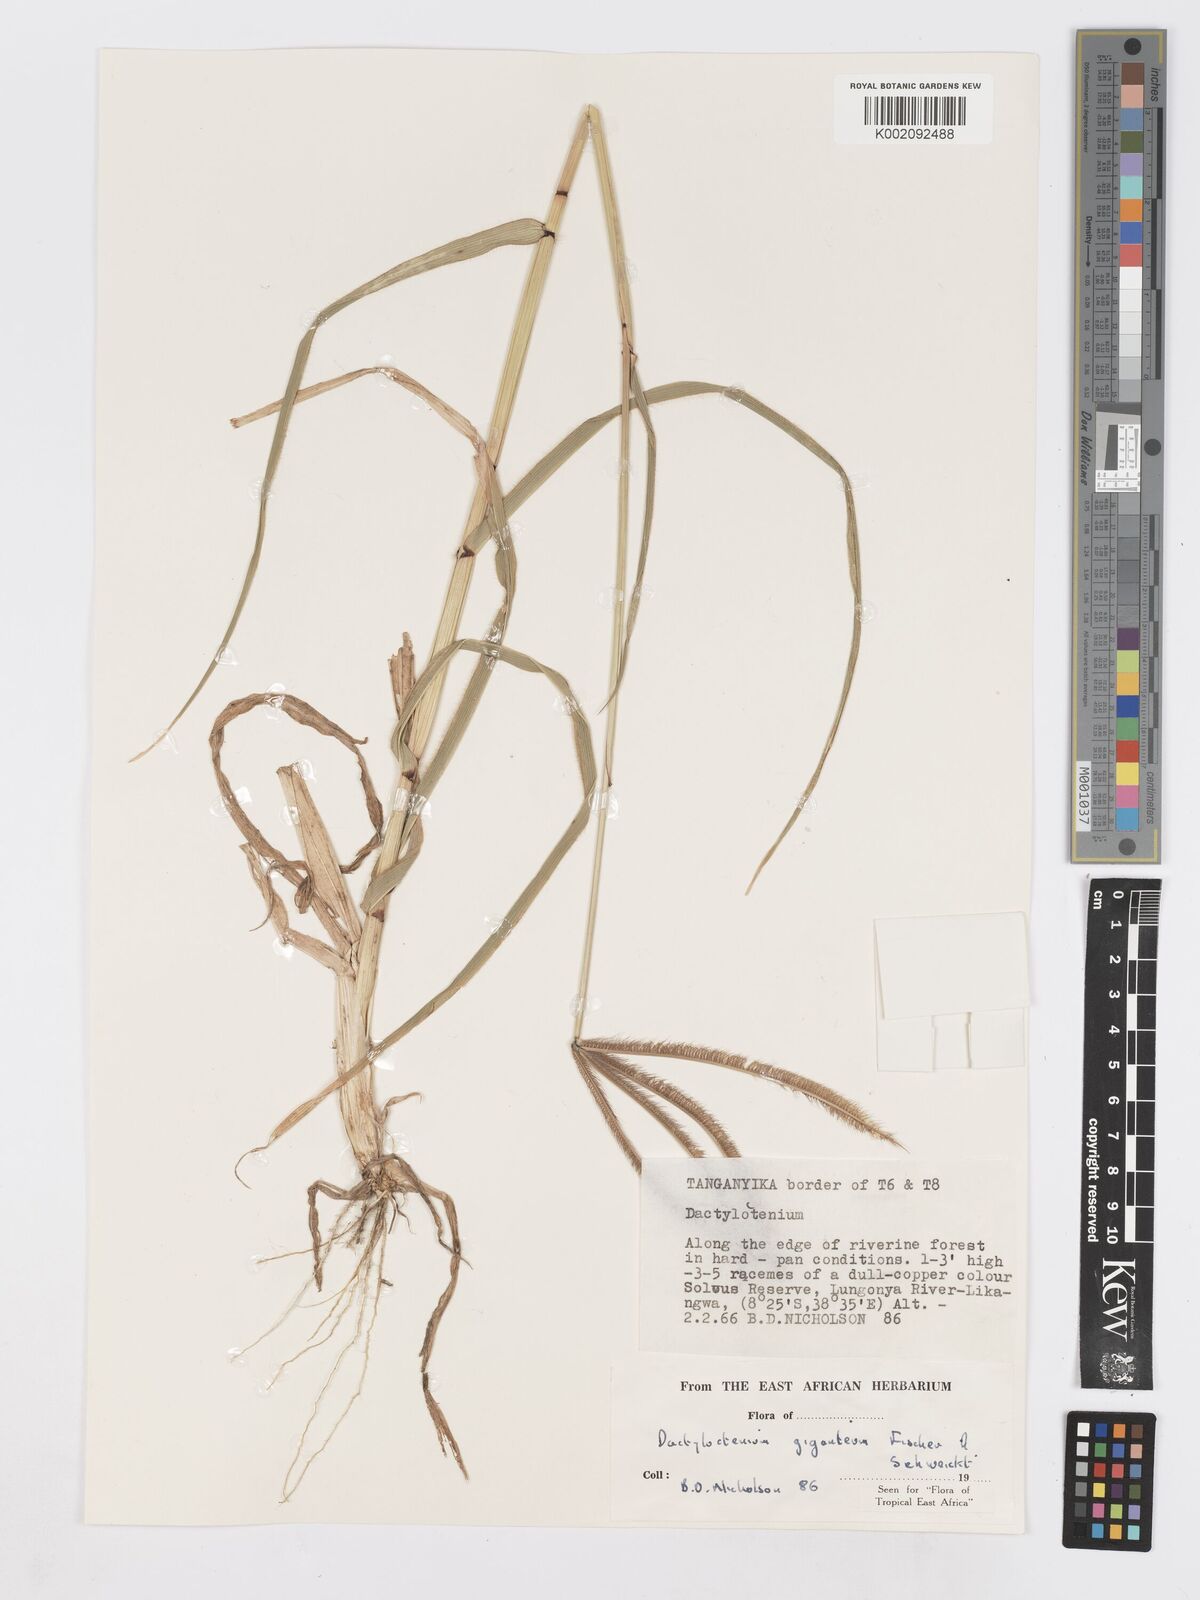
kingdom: Plantae
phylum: Tracheophyta
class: Liliopsida
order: Poales
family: Poaceae
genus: Dactyloctenium
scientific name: Dactyloctenium giganteum
